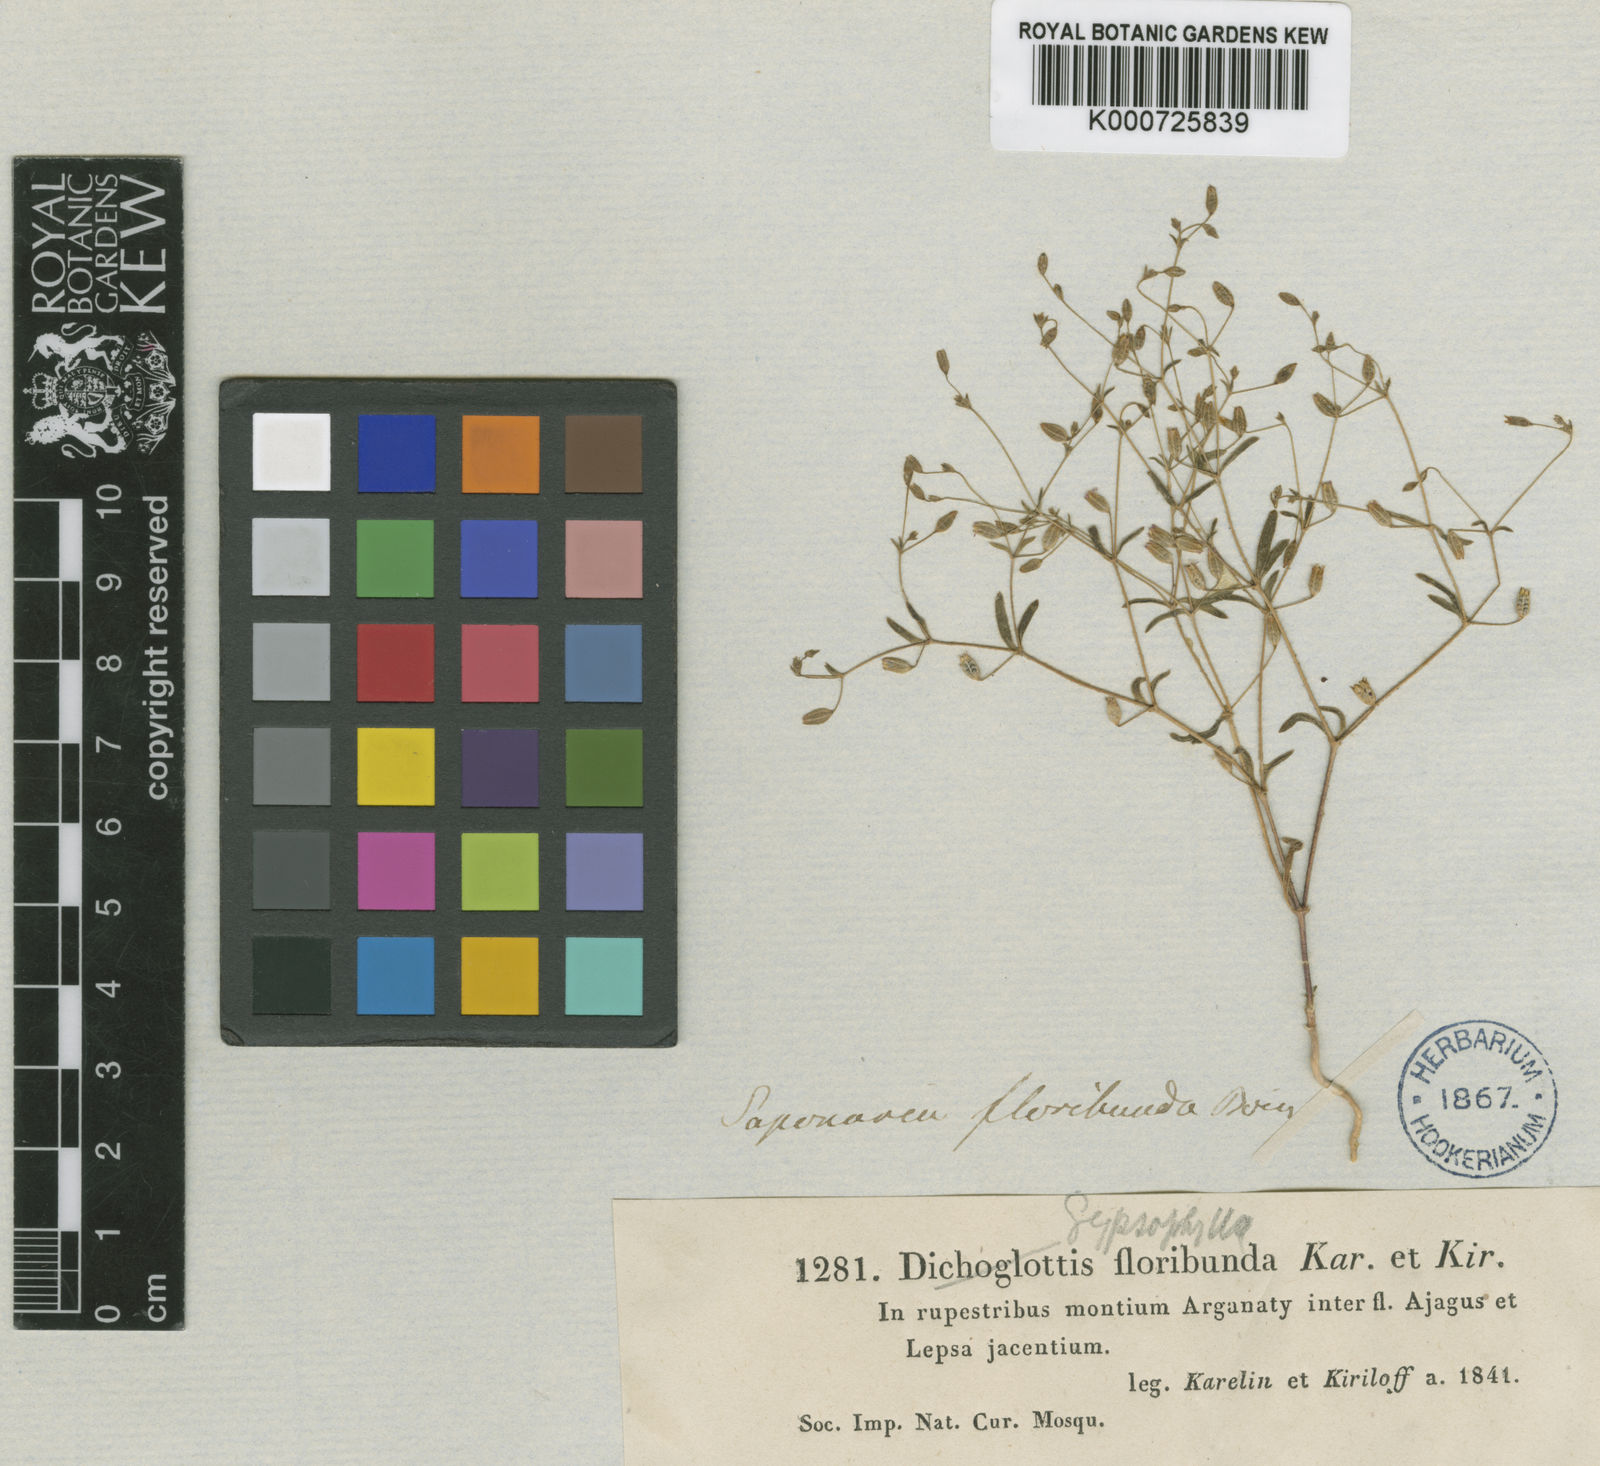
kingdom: Plantae
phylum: Tracheophyta
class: Magnoliopsida
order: Caryophyllales
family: Caryophyllaceae
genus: Psammophiliella
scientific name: Psammophiliella filipes
